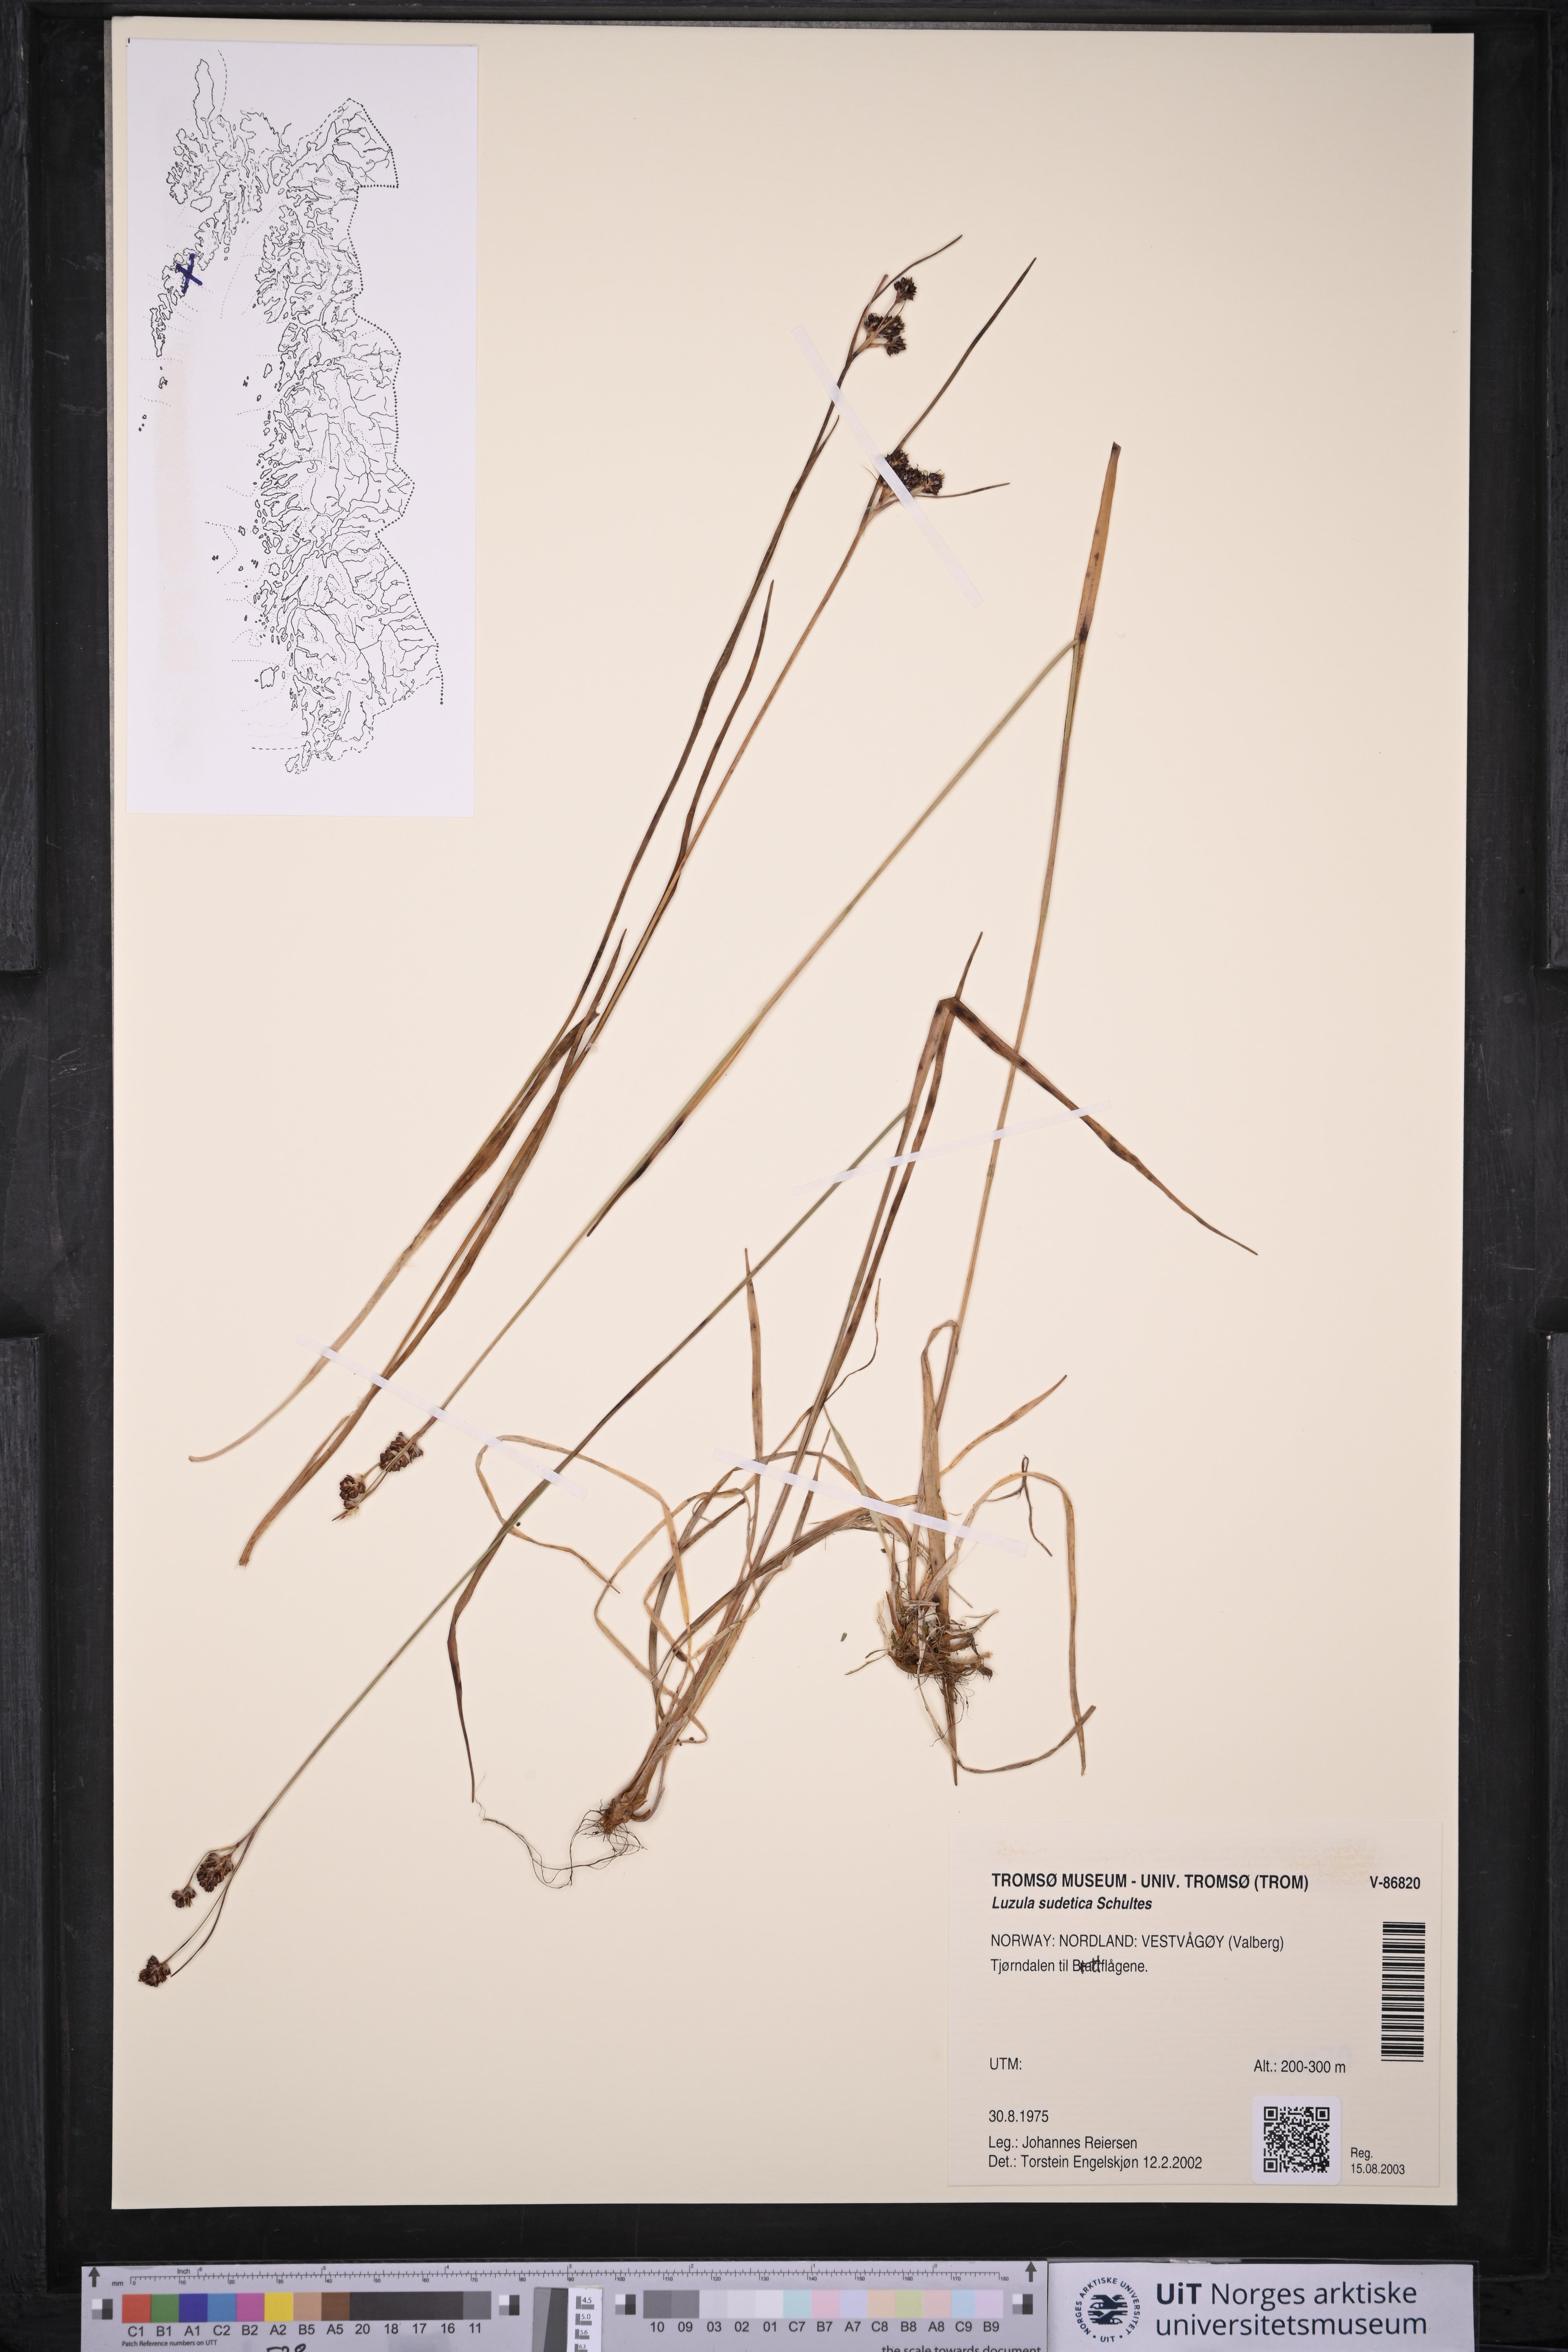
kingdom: Plantae
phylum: Tracheophyta
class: Liliopsida
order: Poales
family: Juncaceae
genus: Luzula
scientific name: Luzula sudetica
